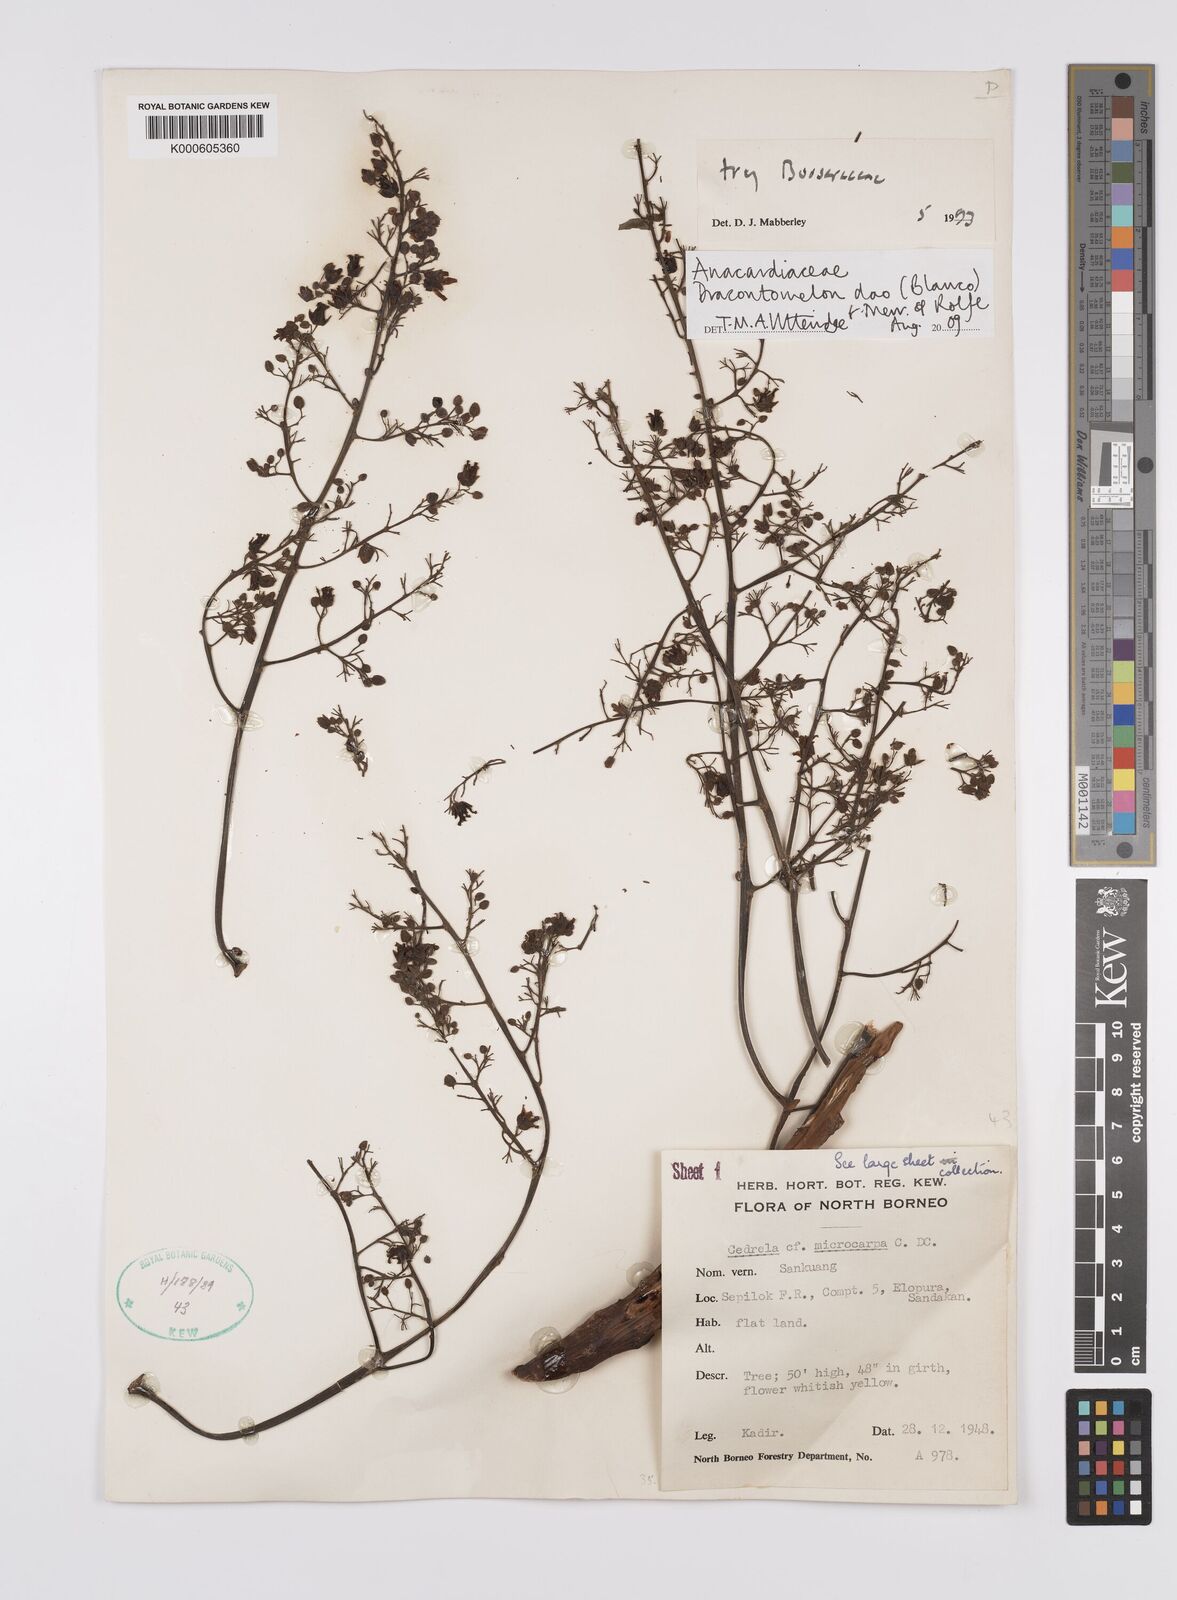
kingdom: Plantae
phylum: Tracheophyta
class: Magnoliopsida
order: Sapindales
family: Anacardiaceae
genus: Dracontomelon
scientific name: Dracontomelon dao
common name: Argus pheasant-tree
